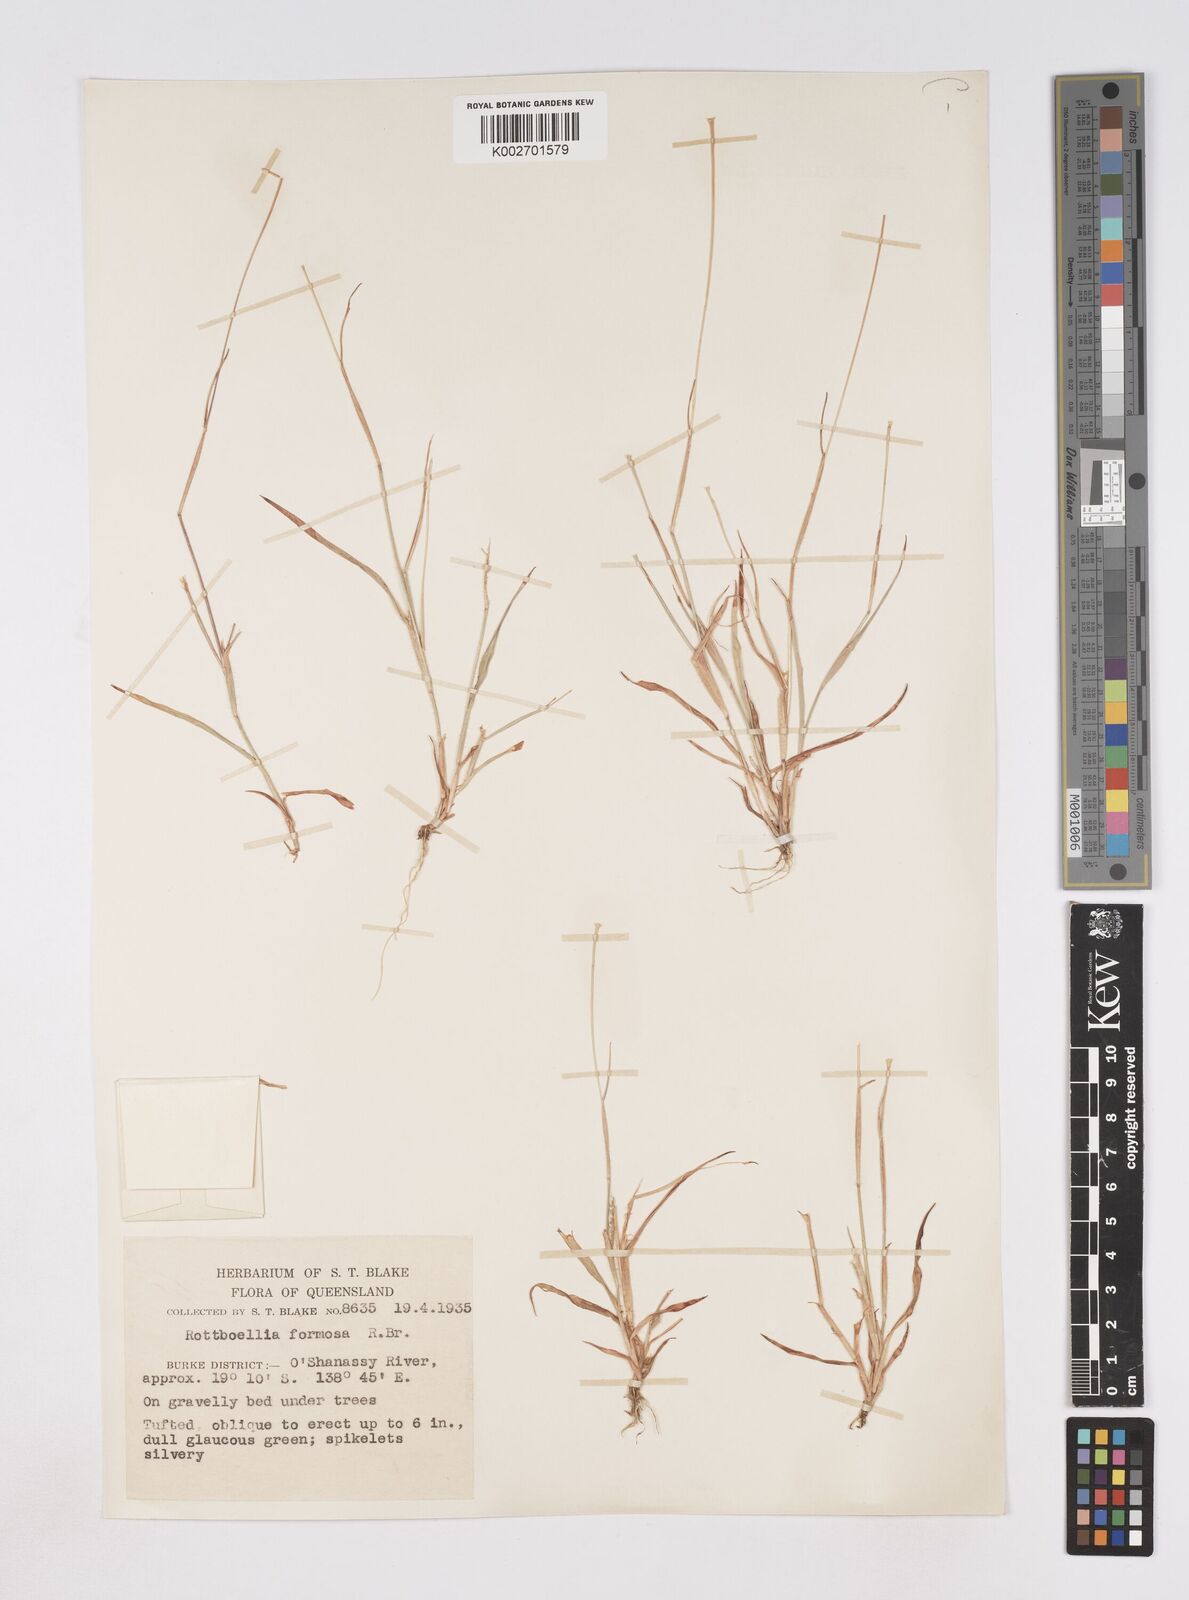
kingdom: Plantae
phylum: Tracheophyta
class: Liliopsida
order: Poales
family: Poaceae
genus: Heteropholis
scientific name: Heteropholis
